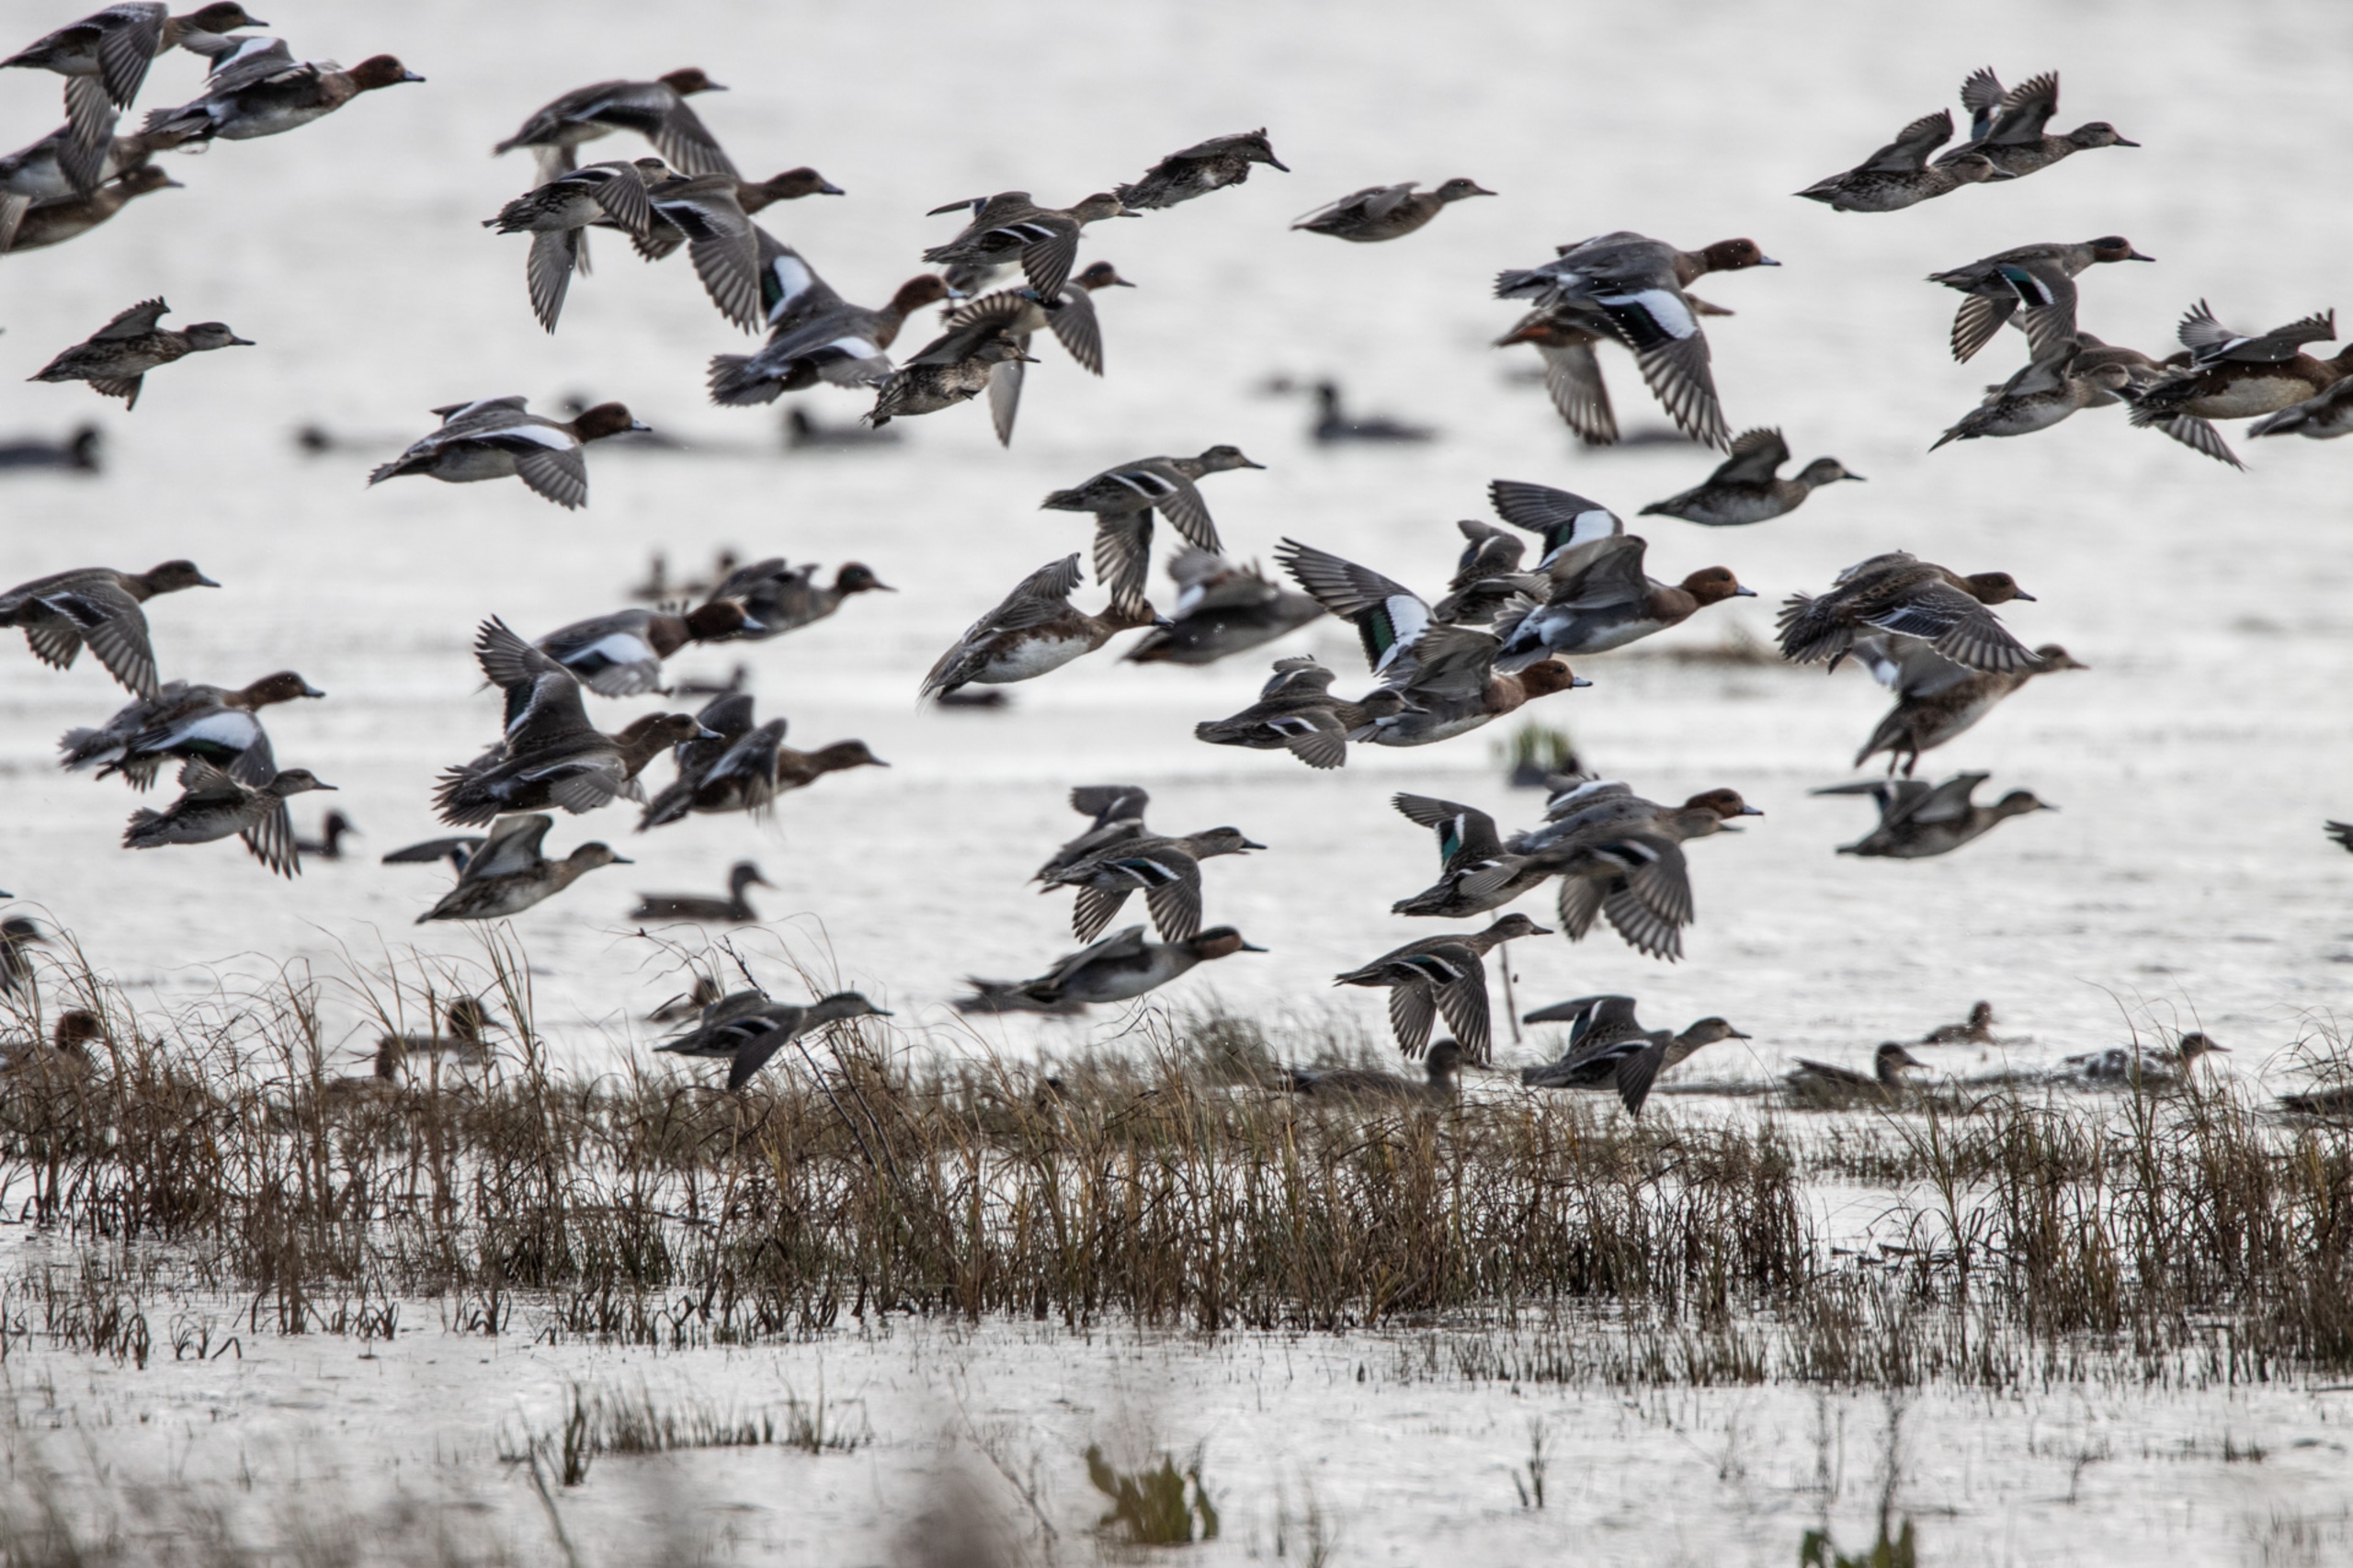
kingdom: Animalia
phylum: Chordata
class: Aves
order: Anseriformes
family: Anatidae
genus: Mareca
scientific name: Mareca penelope
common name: Pibeand
